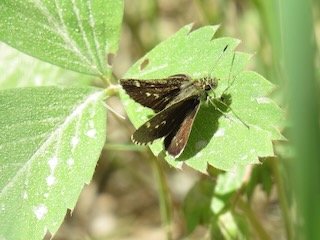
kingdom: Animalia
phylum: Arthropoda
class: Insecta
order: Lepidoptera
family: Hesperiidae
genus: Mastor
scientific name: Mastor hegon
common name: Pepper and Salt Skipper
